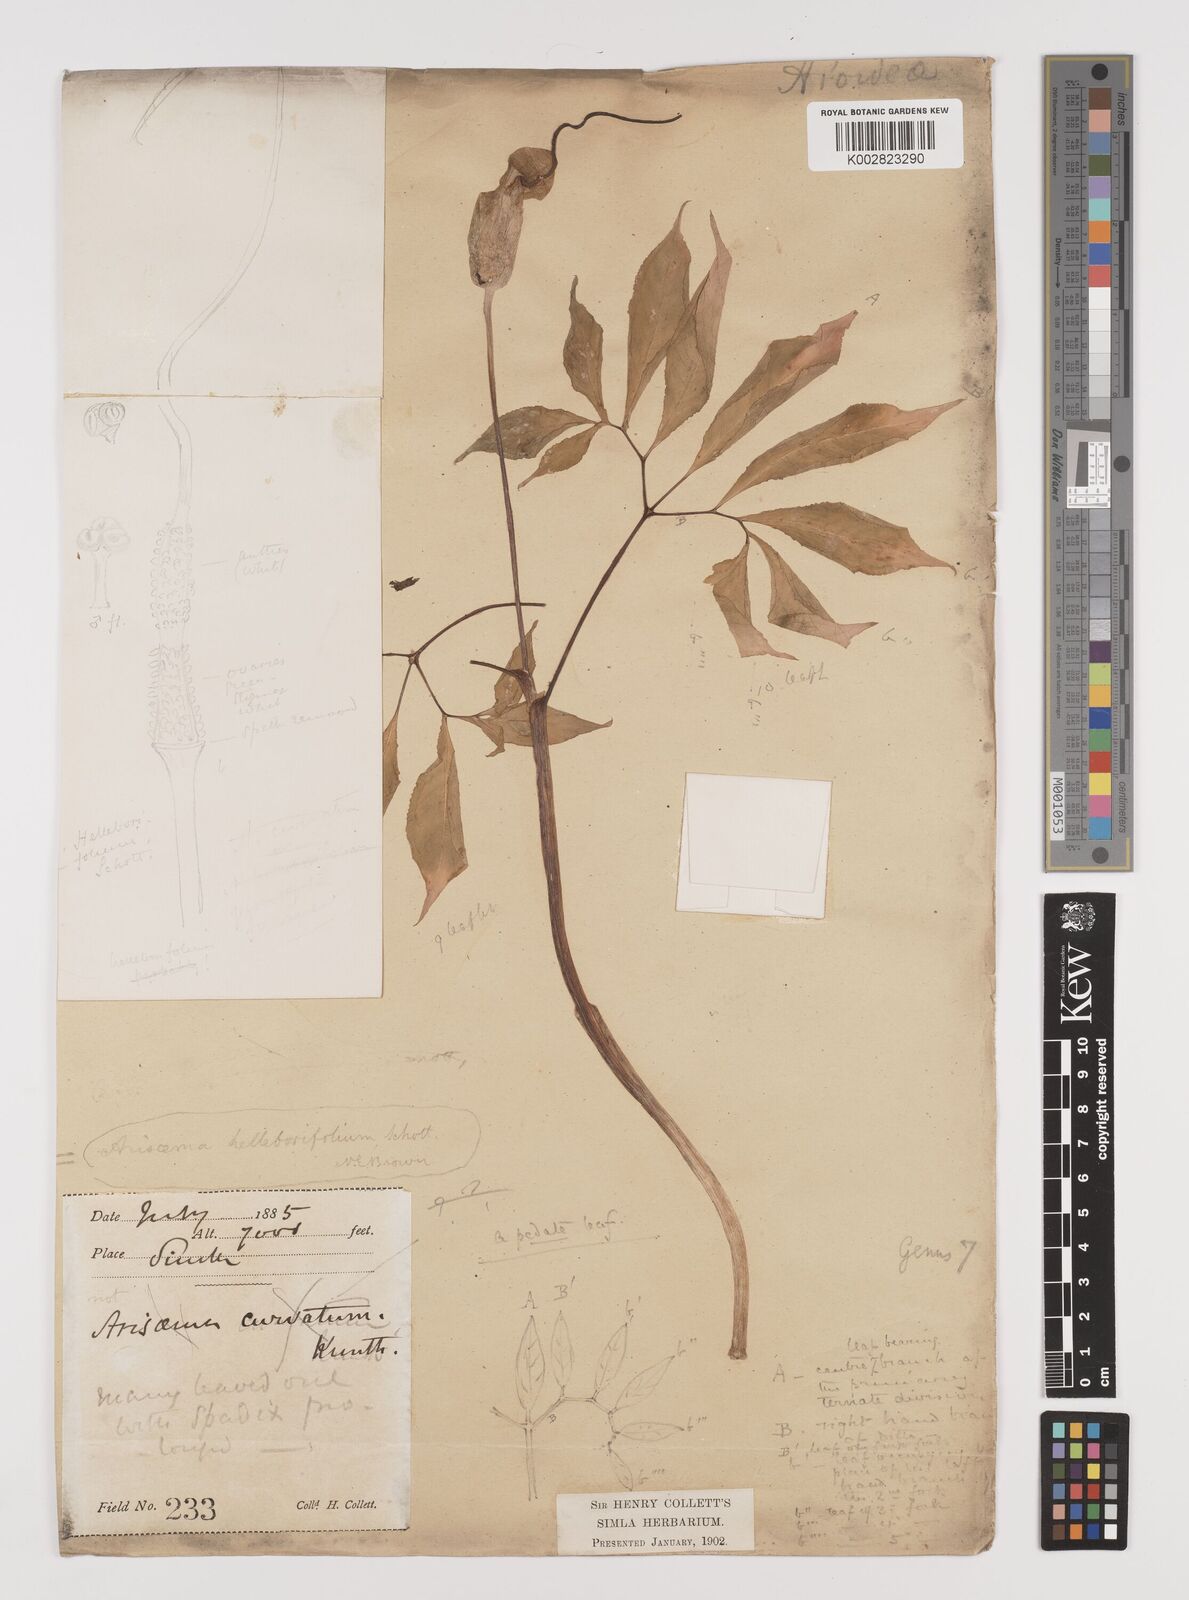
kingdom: Plantae
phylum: Tracheophyta
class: Liliopsida
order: Alismatales
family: Araceae
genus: Arisaema
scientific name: Arisaema tortuosum
